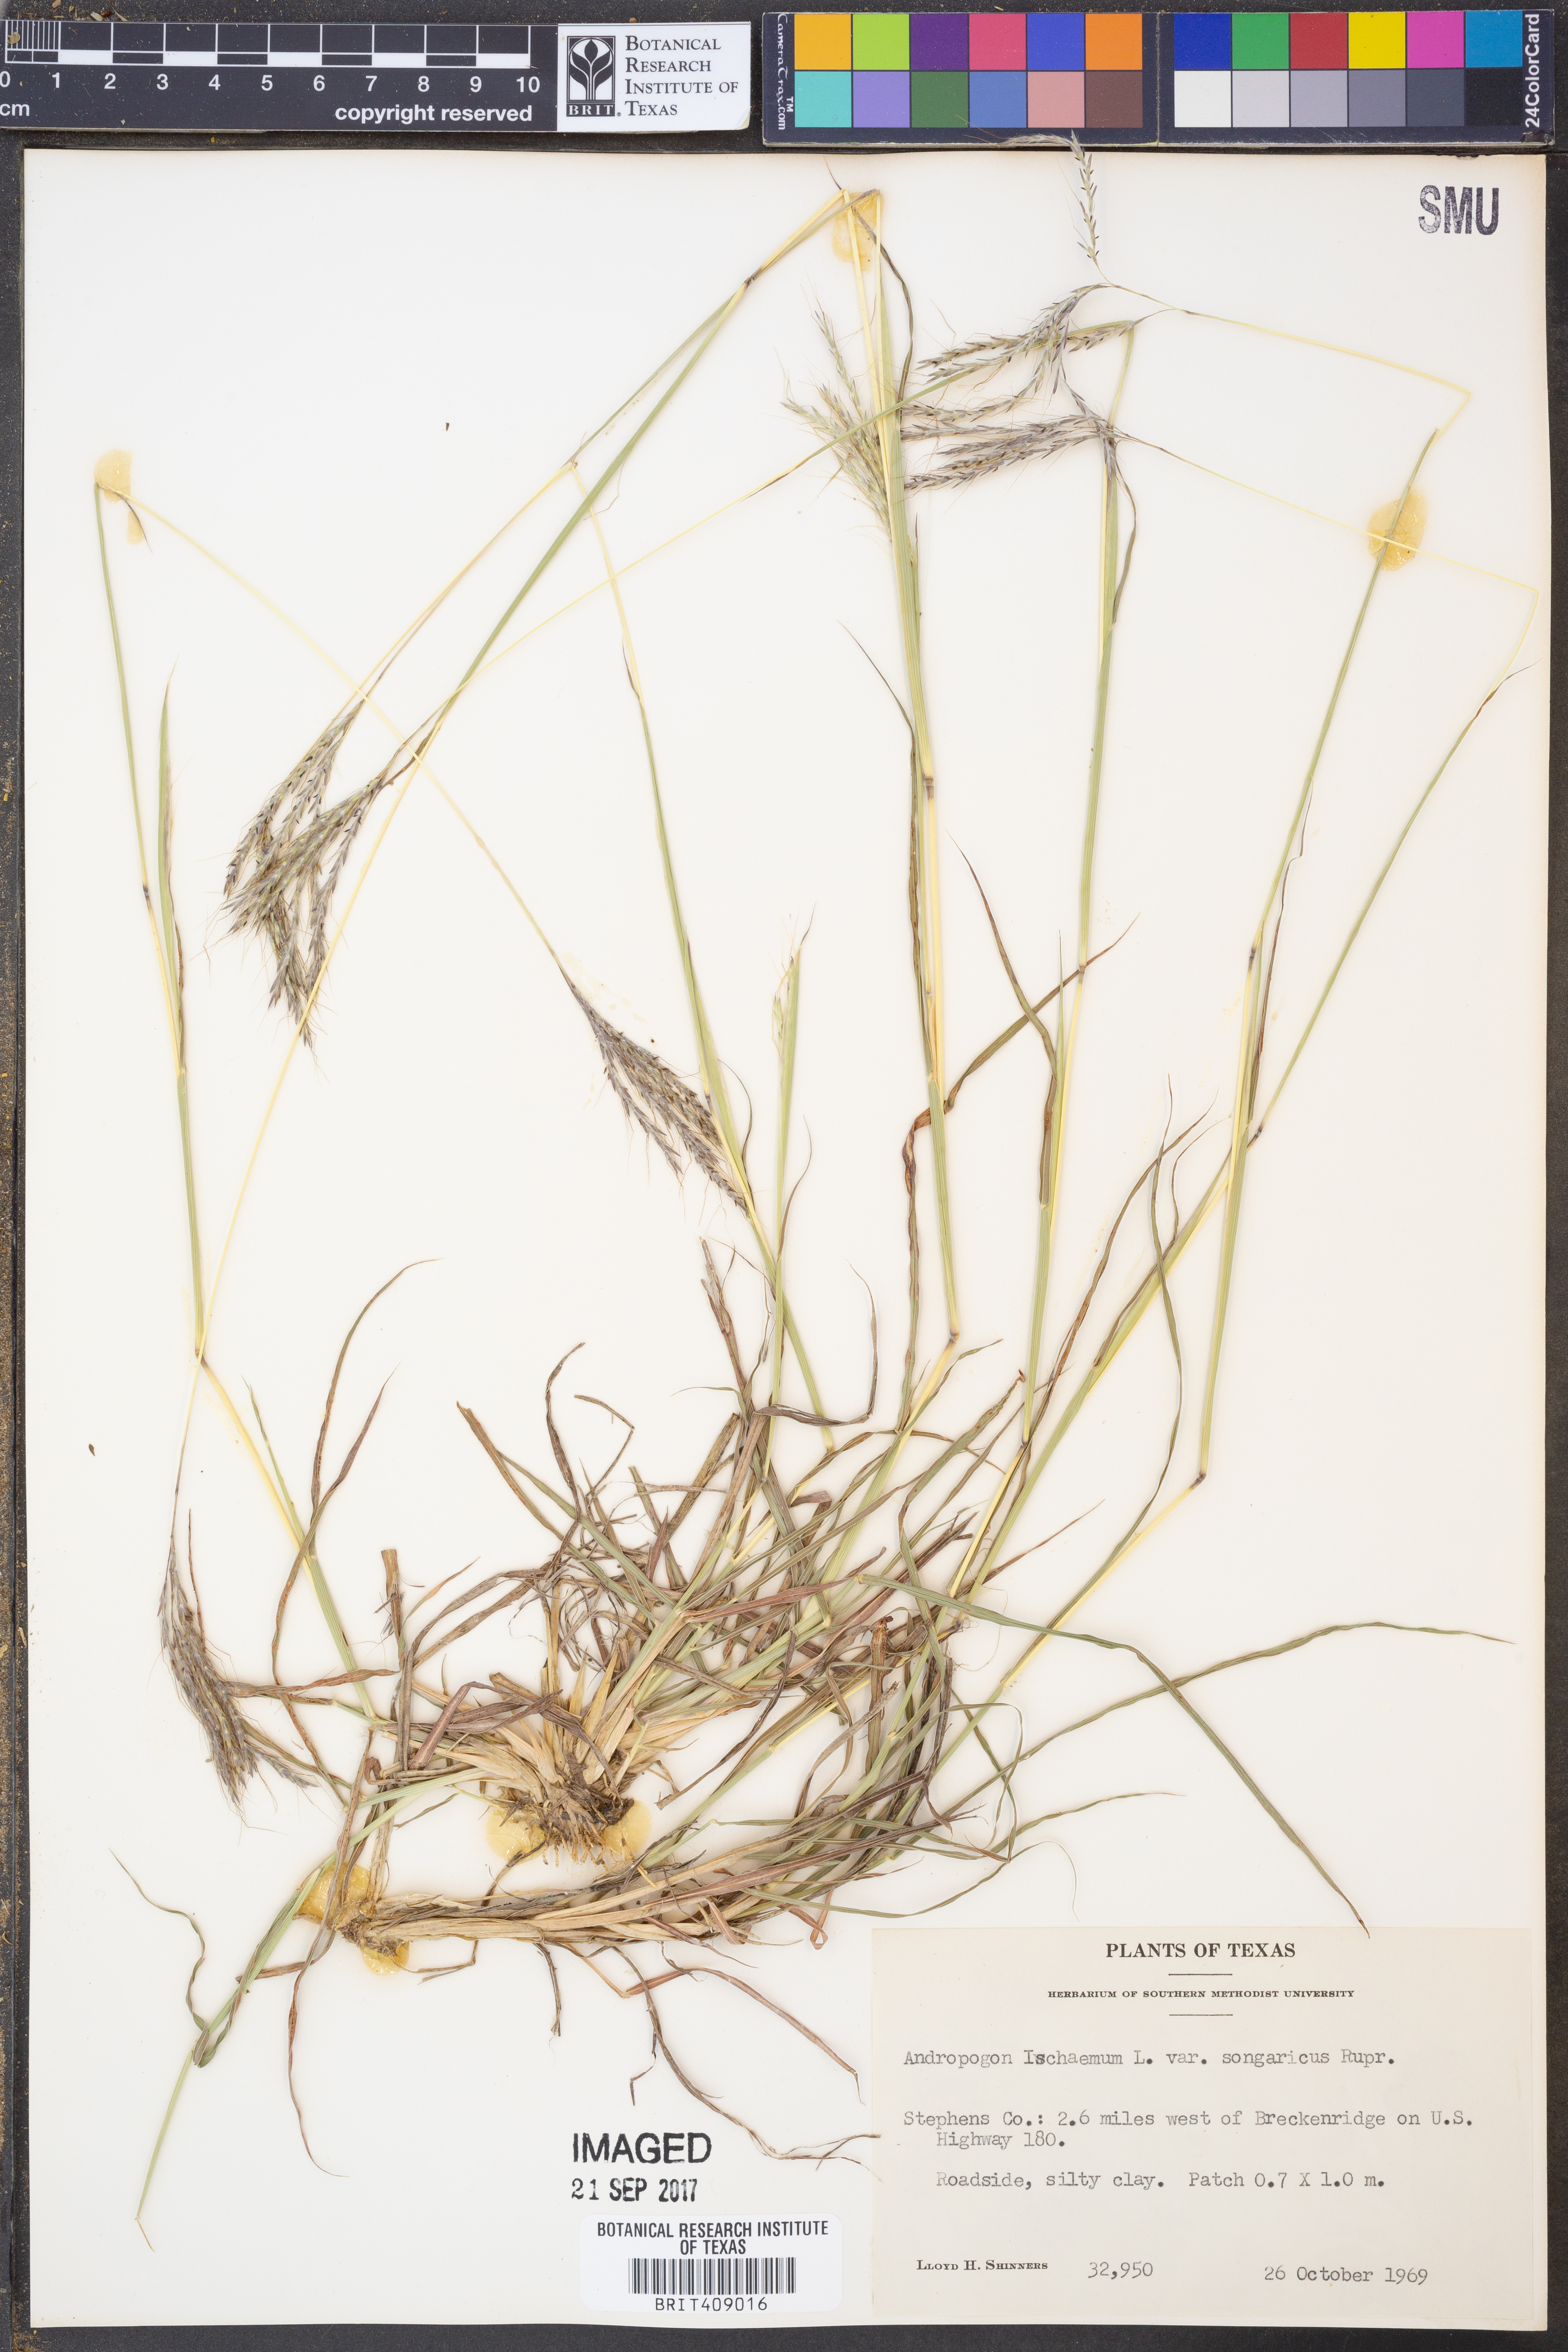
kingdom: Plantae
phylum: Tracheophyta
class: Liliopsida
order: Poales
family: Poaceae
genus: Bothriochloa
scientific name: Bothriochloa ischaemum
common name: Yellow bluestem
